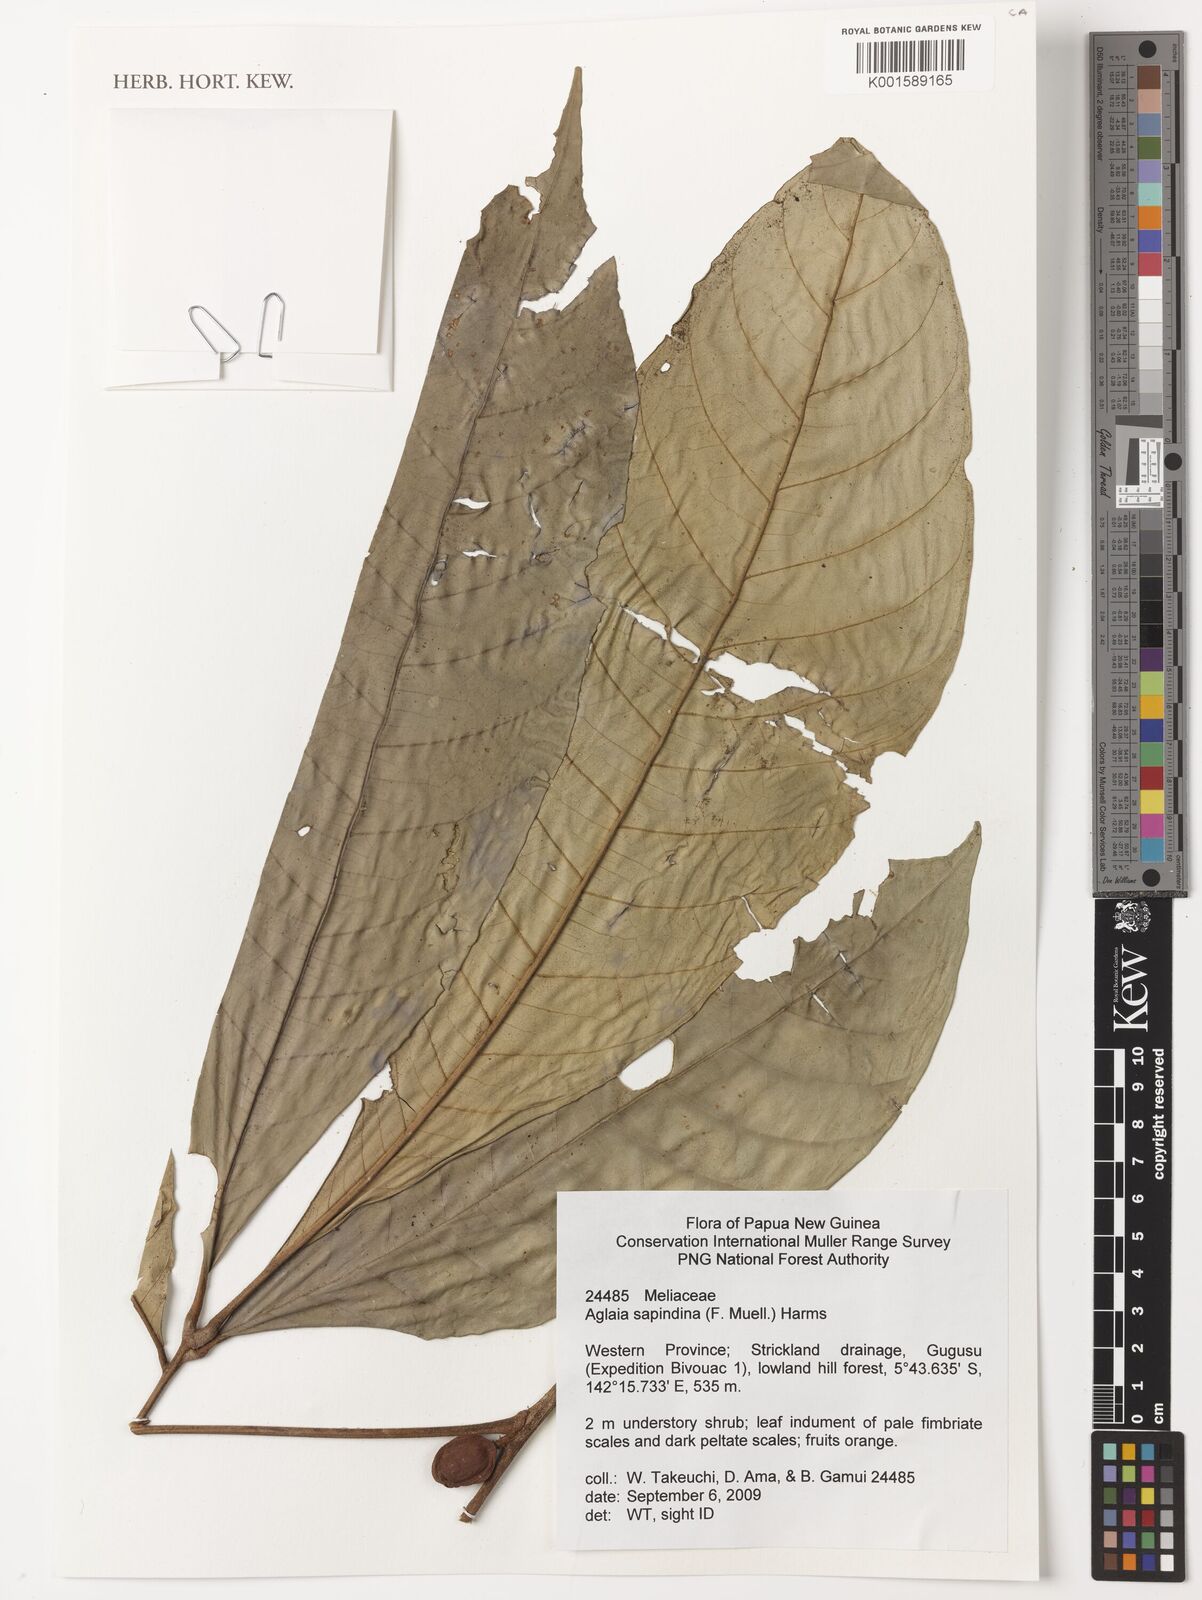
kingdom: Plantae
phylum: Tracheophyta
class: Magnoliopsida
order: Sapindales
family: Meliaceae
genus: Aglaia
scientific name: Aglaia sapindina
